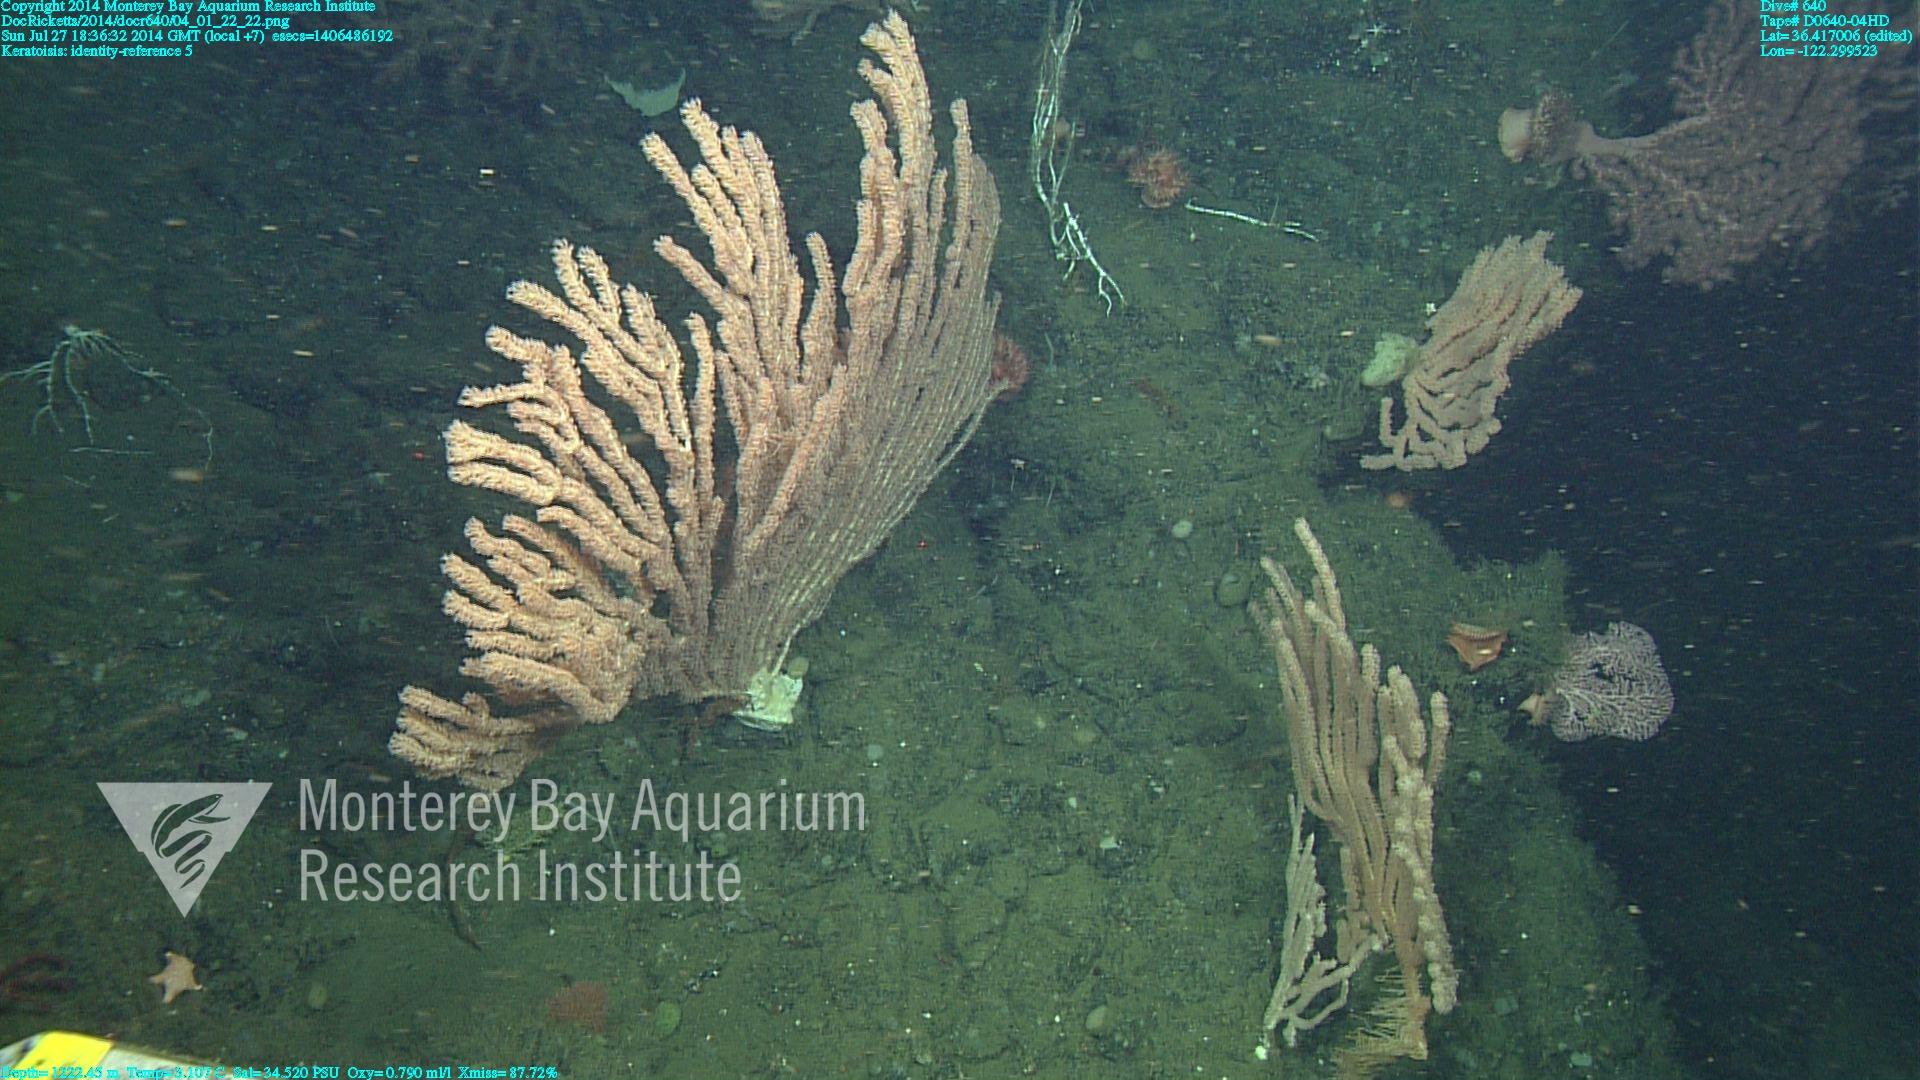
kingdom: Animalia
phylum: Cnidaria
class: Anthozoa
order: Scleralcyonacea
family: Keratoisididae
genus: Keratoisis
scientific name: Keratoisis
